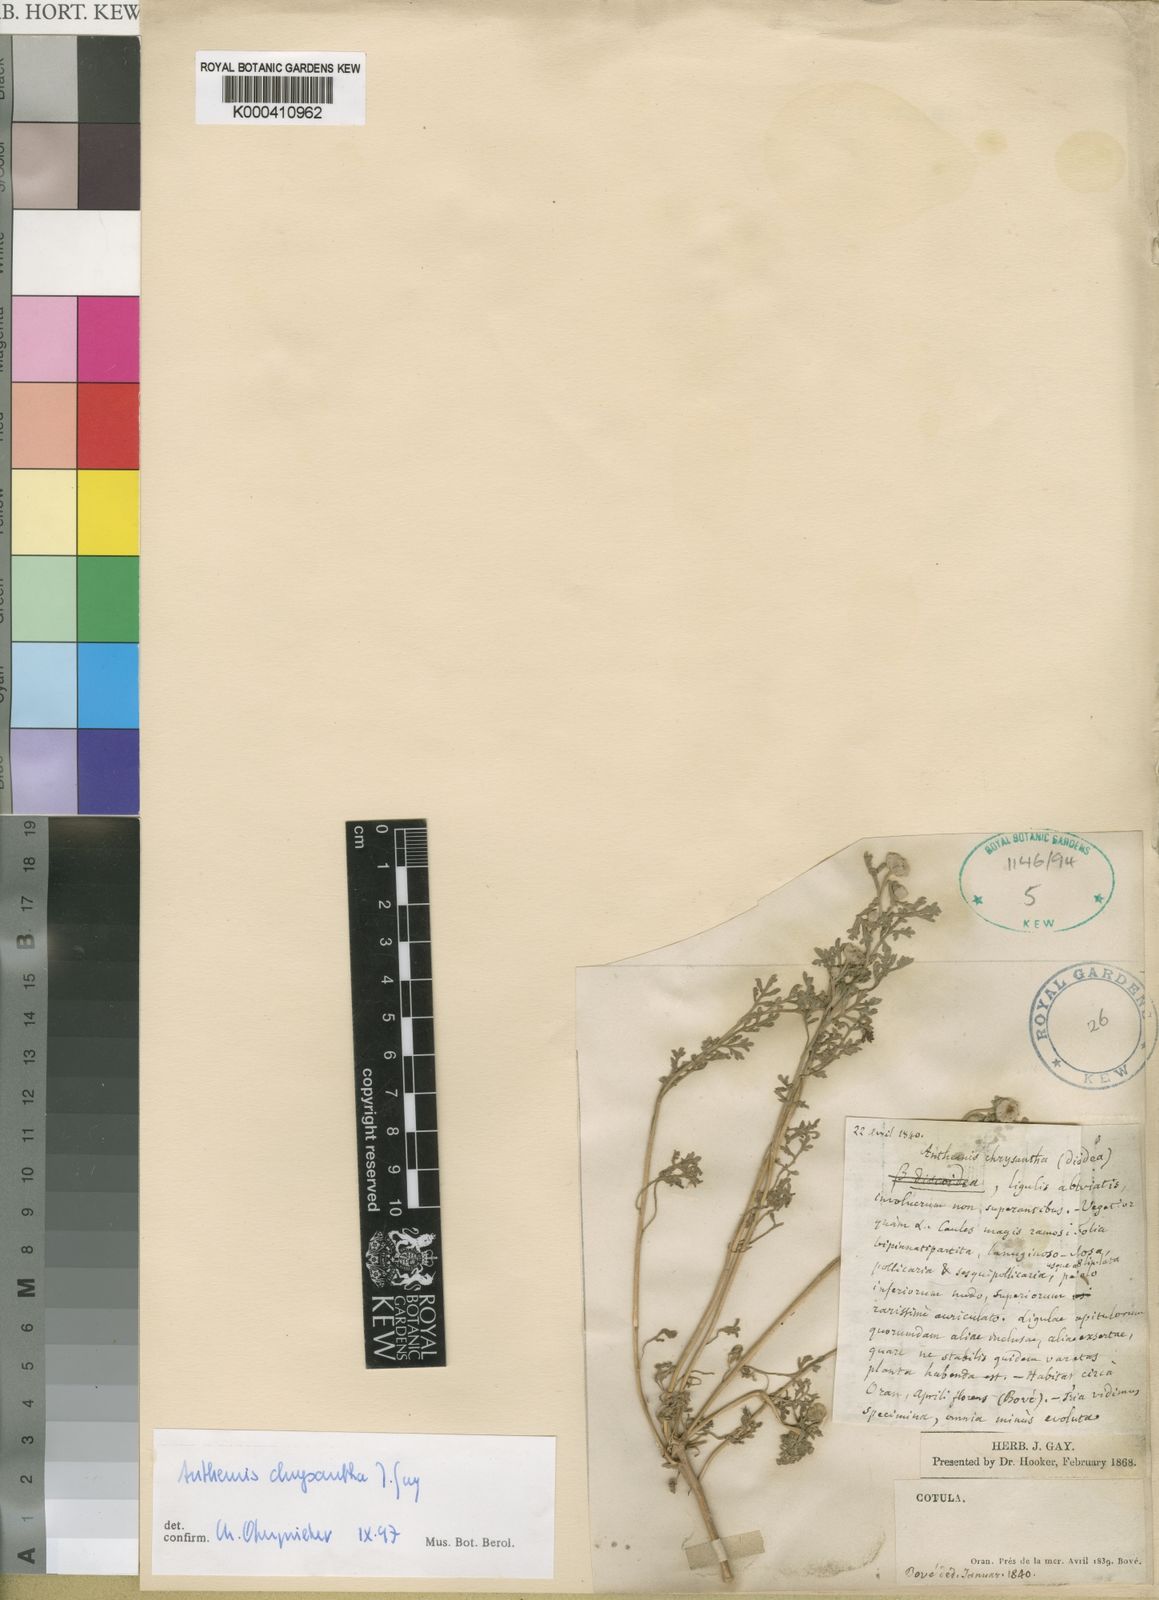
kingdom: Plantae
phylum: Tracheophyta
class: Magnoliopsida
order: Asterales
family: Asteraceae
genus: Anthemis
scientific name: Anthemis chrysantha
